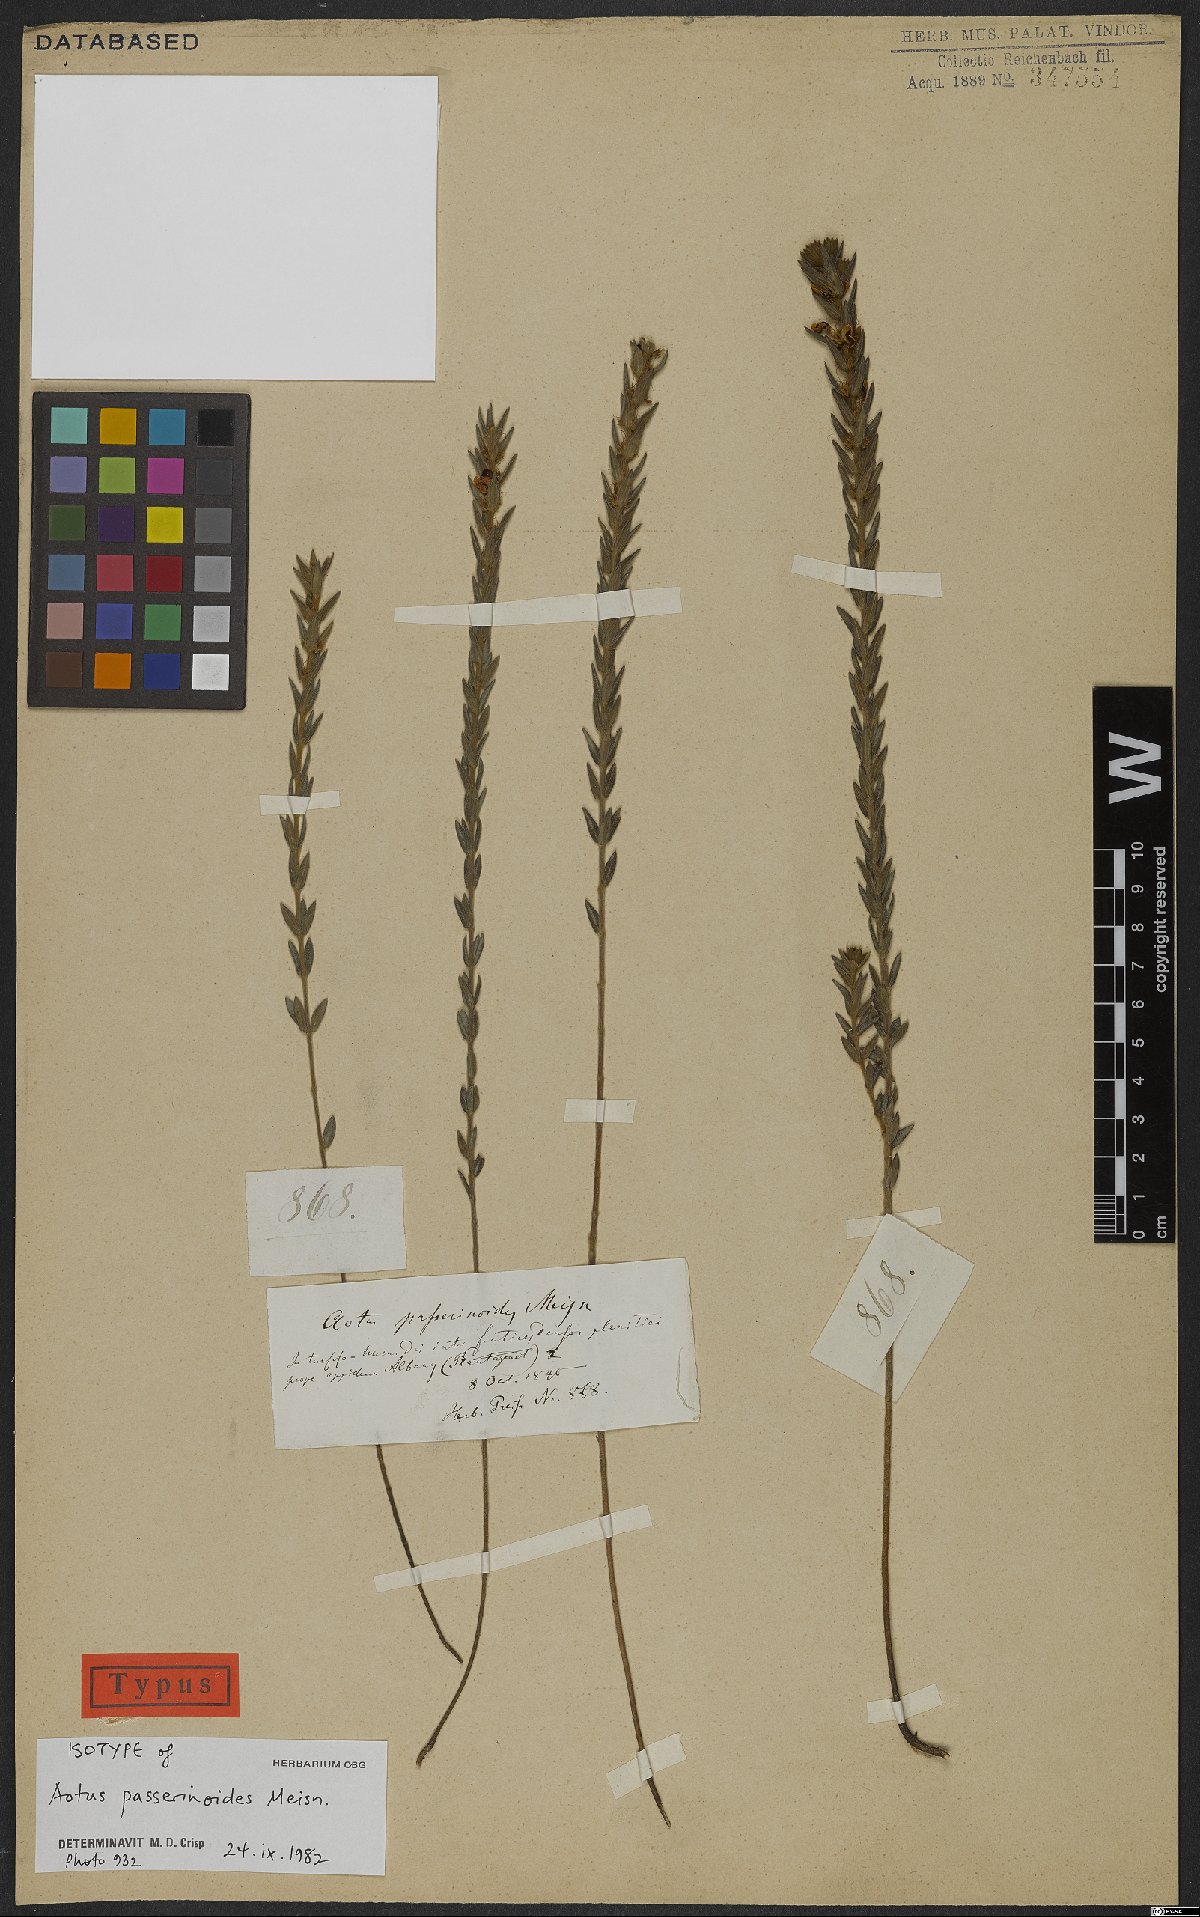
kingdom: Plantae
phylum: Tracheophyta
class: Magnoliopsida
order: Fabales
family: Fabaceae
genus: Aotus
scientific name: Aotus passerinoides
